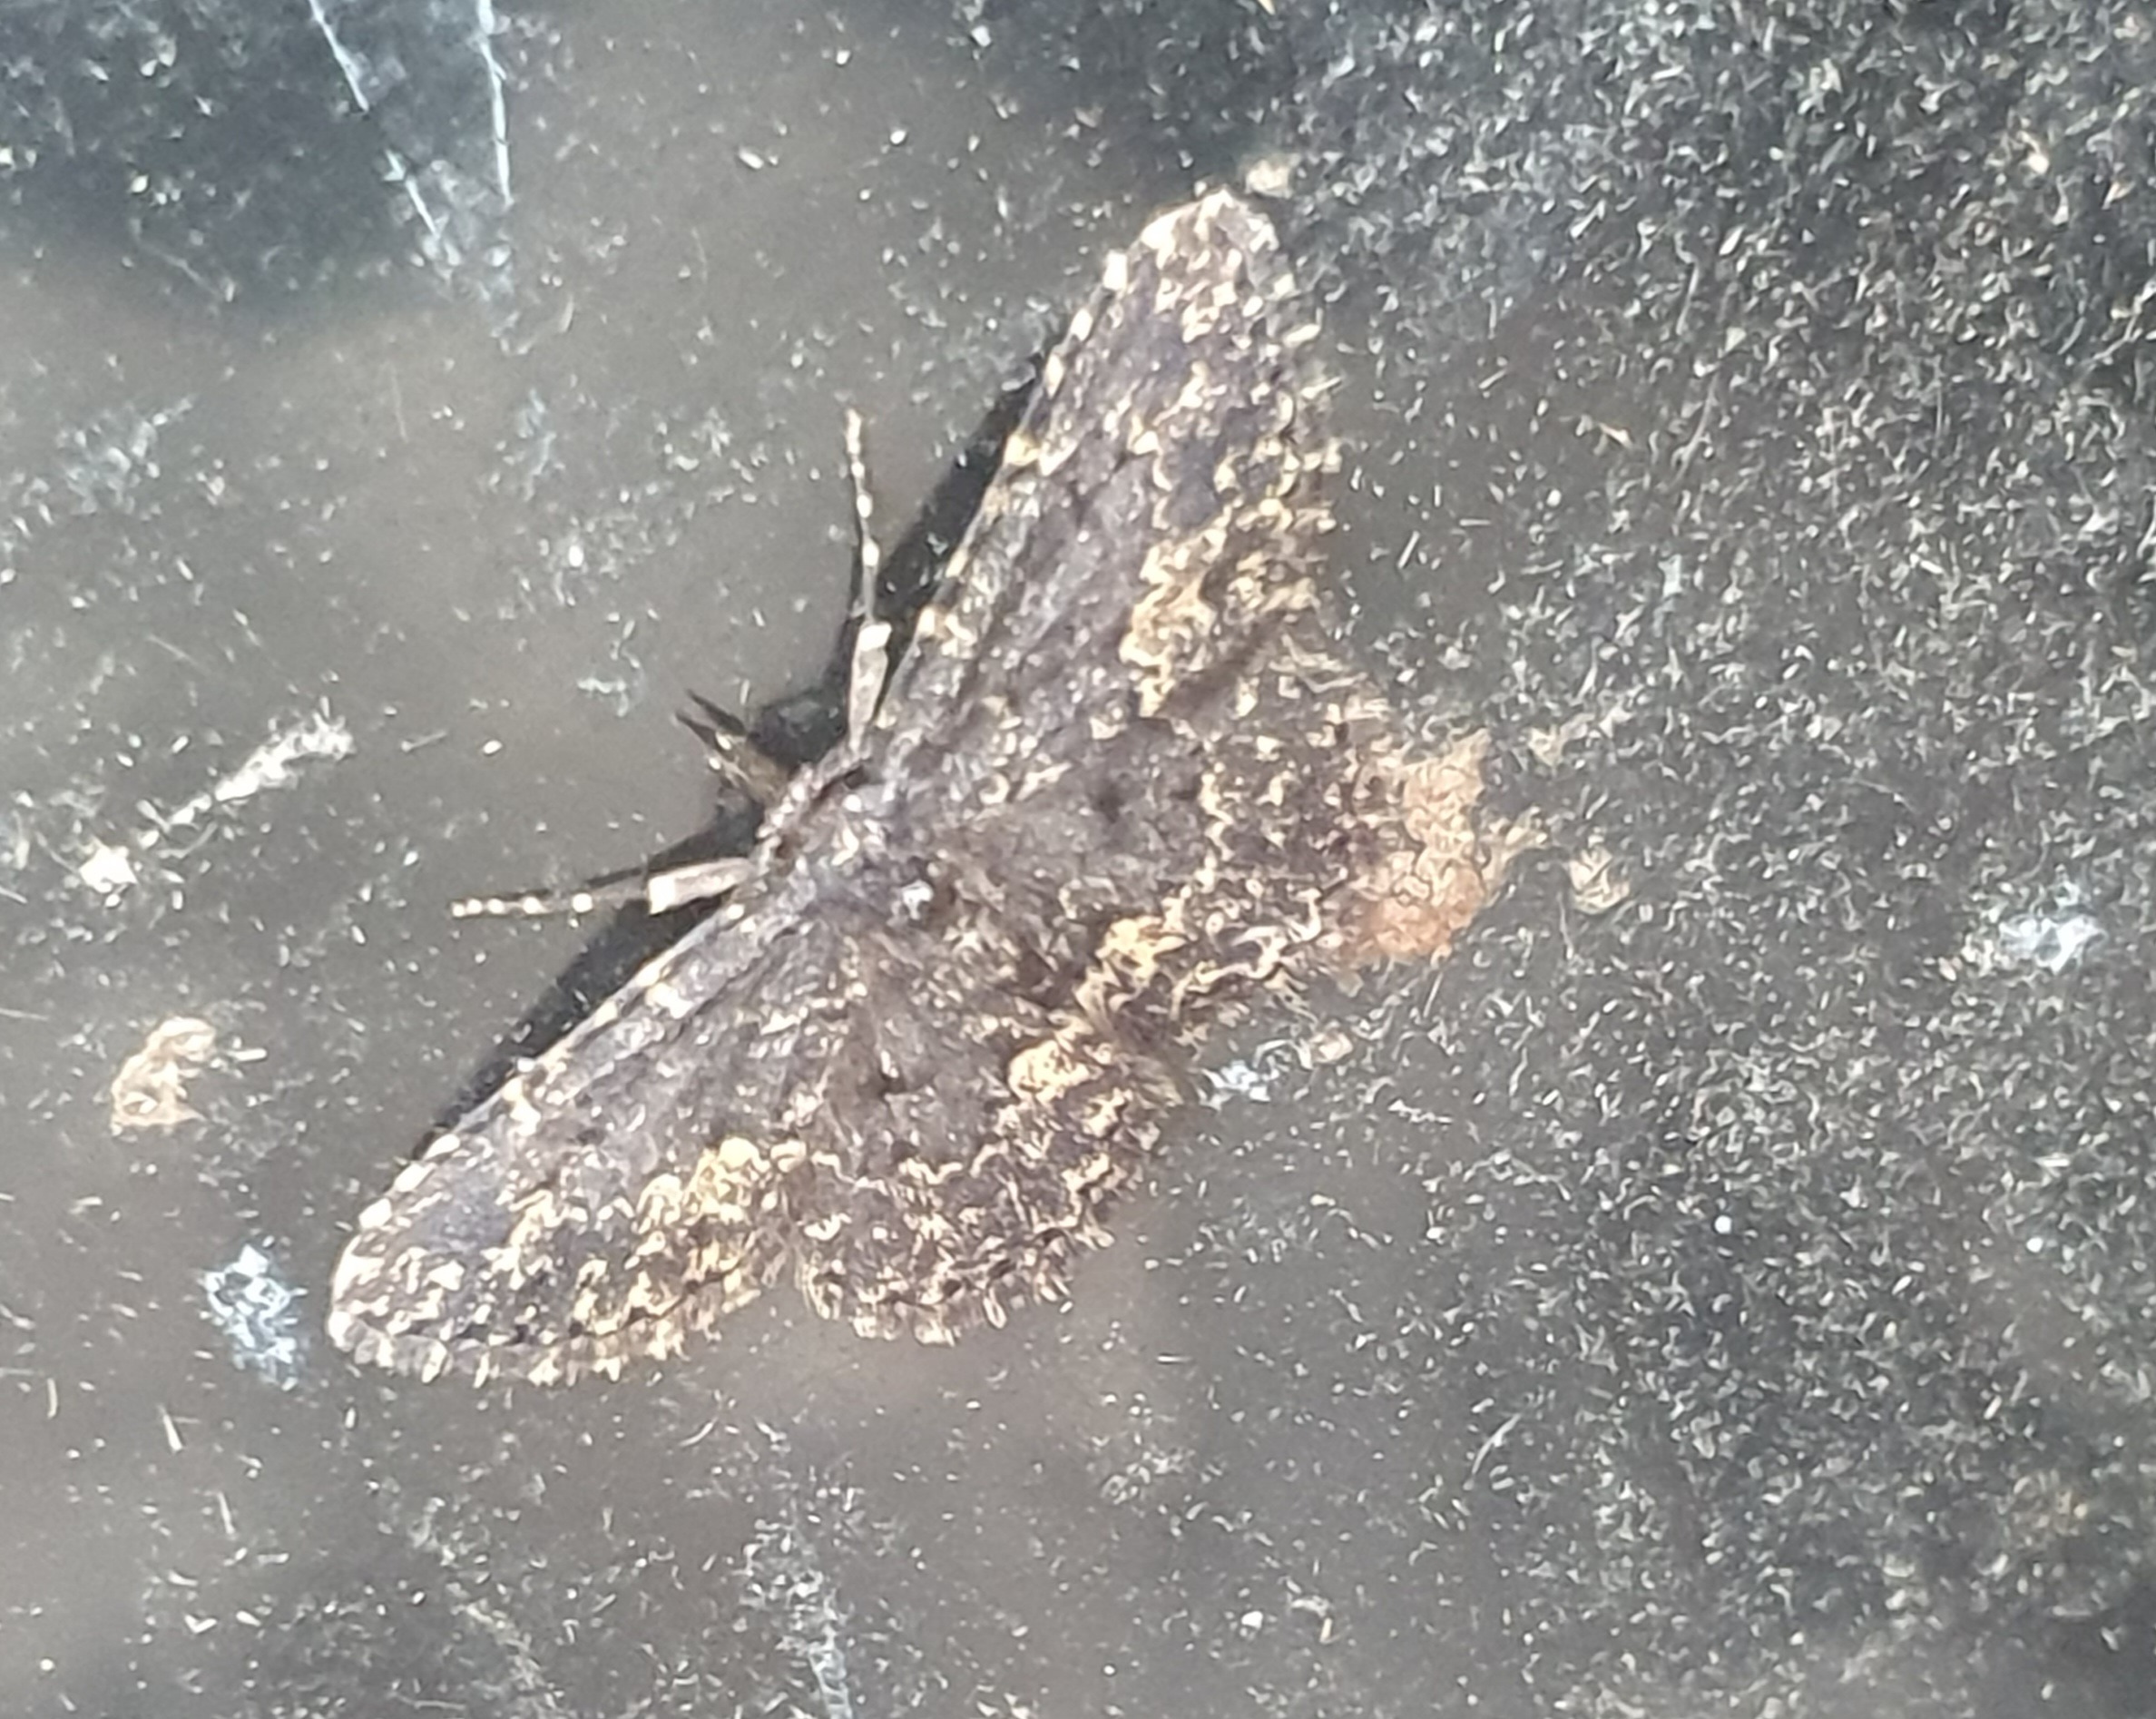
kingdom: Animalia
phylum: Arthropoda
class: Insecta
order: Lepidoptera
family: Erebidae
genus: Parascotia
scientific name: Parascotia fuliginaria
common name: Svampeugle
